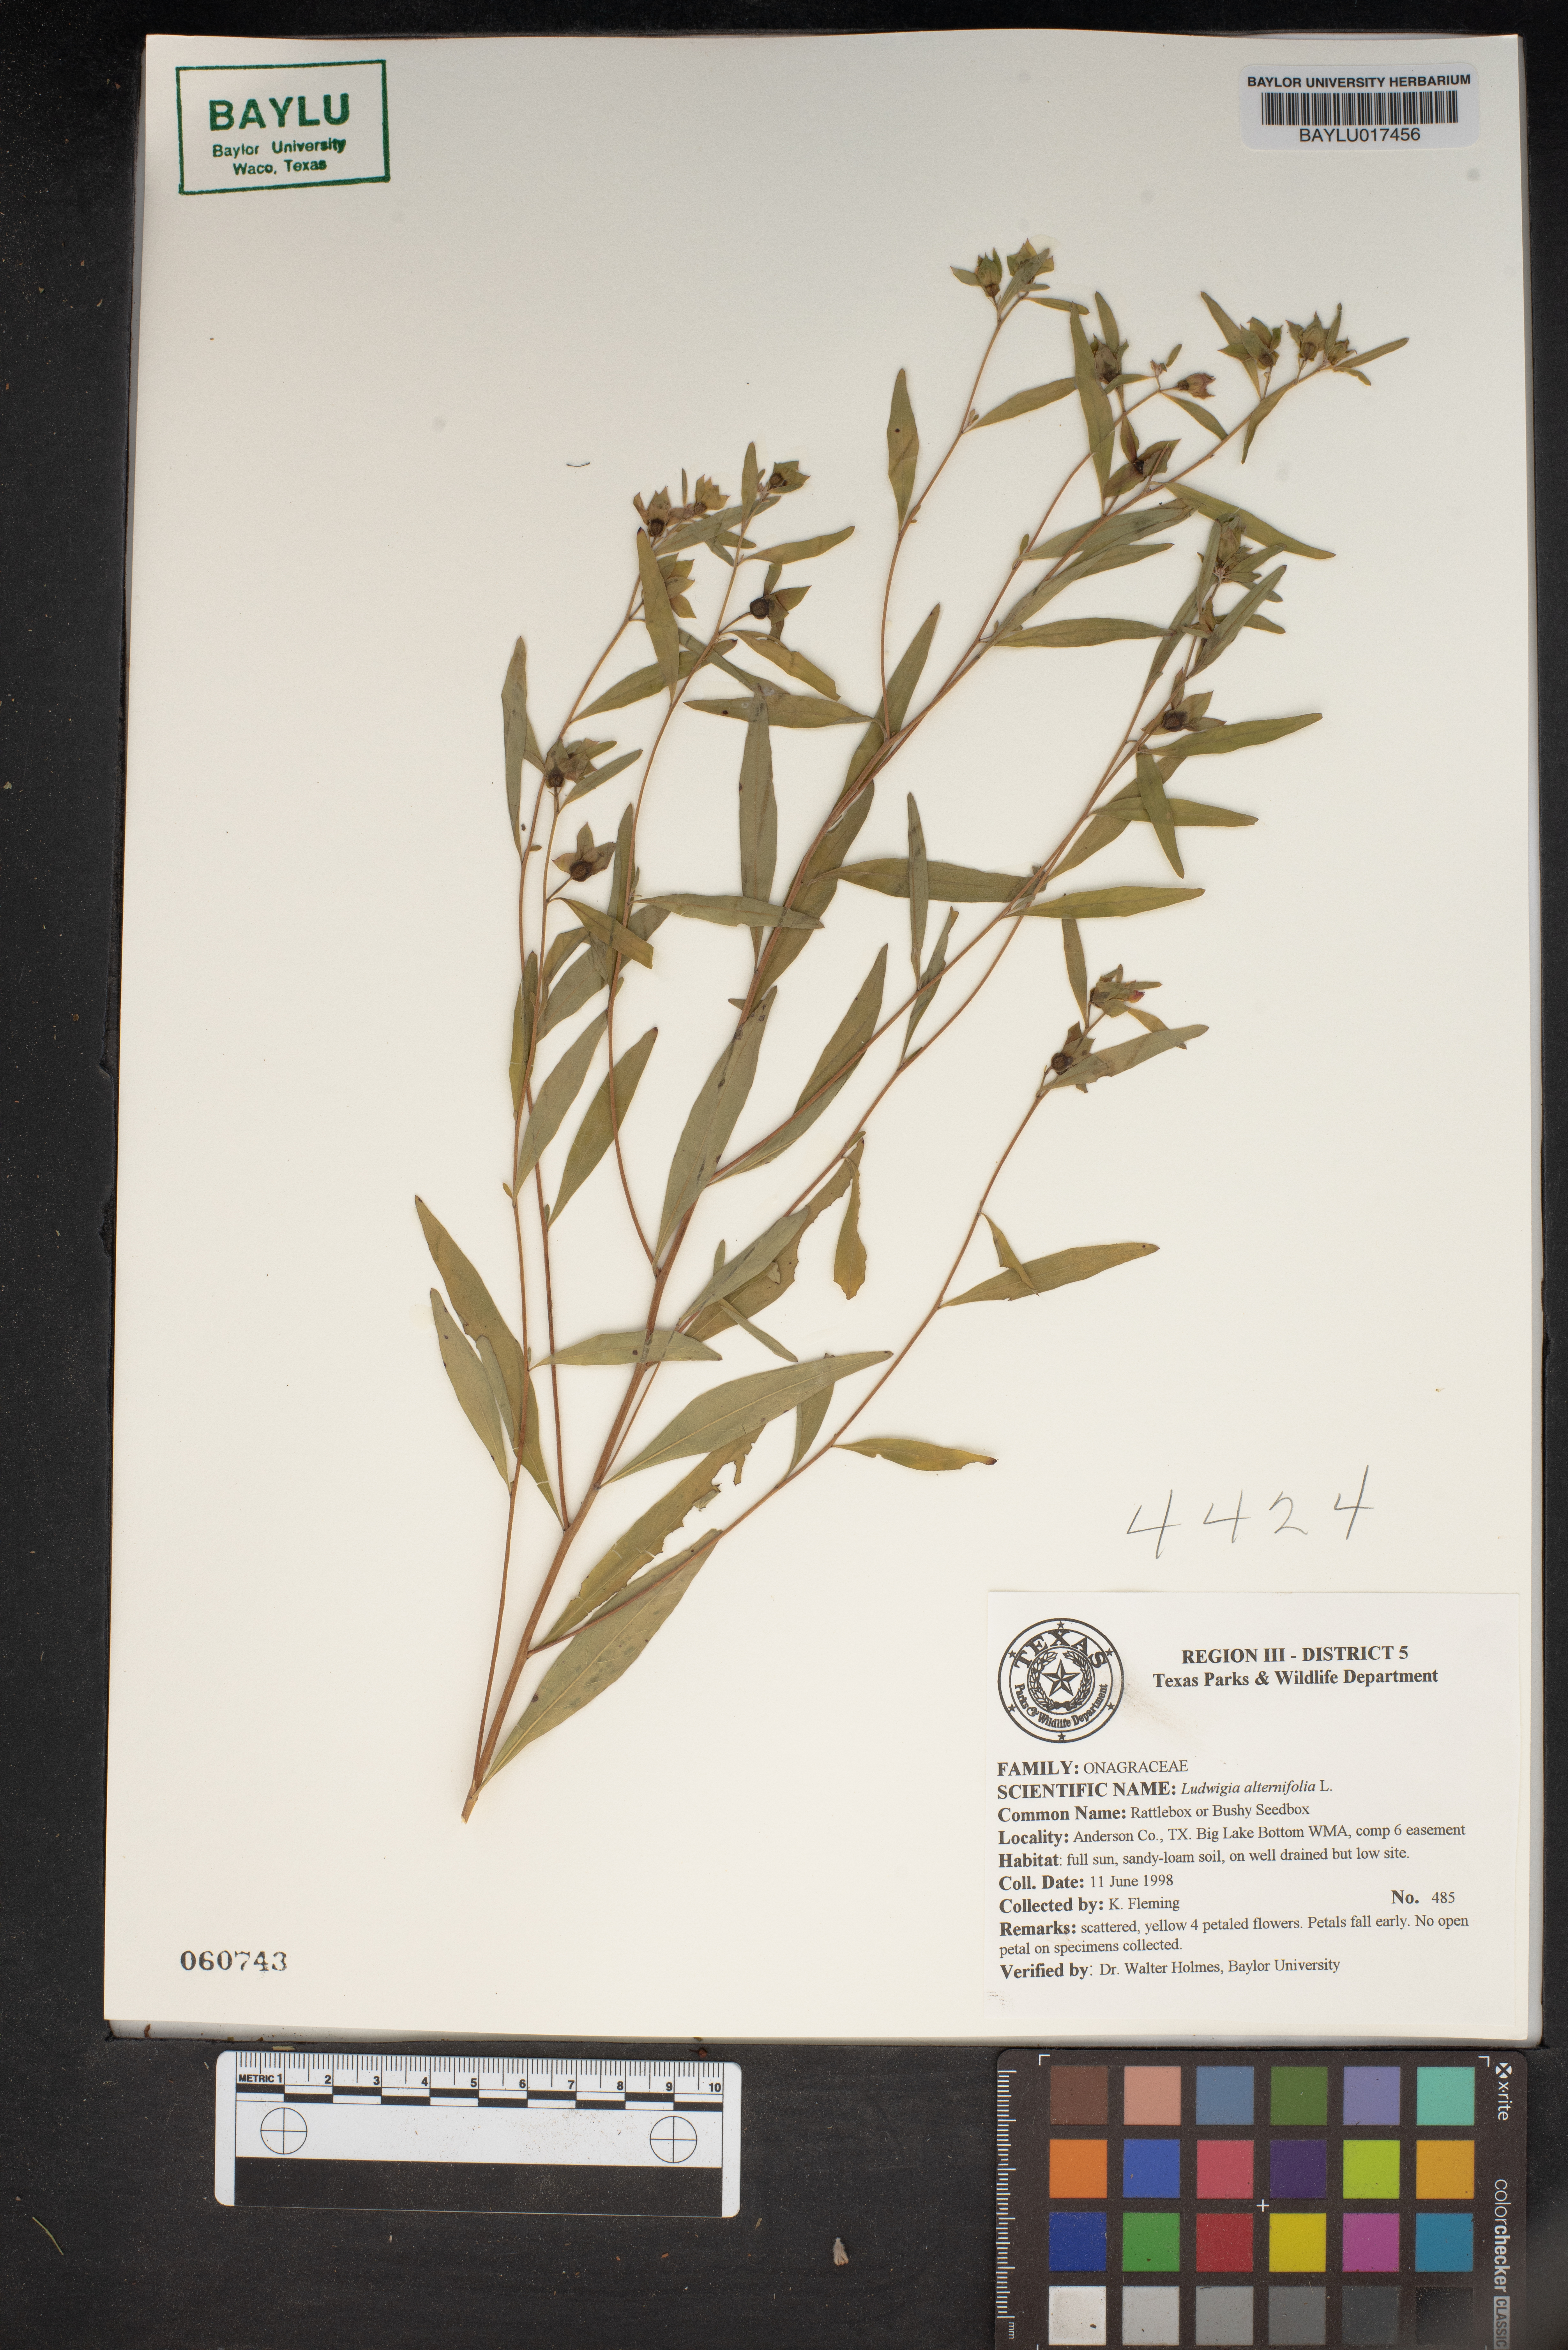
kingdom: Plantae
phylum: Tracheophyta
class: Magnoliopsida
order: Myrtales
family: Onagraceae
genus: Ludwigia
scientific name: Ludwigia alternifolia
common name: Rattlebox
